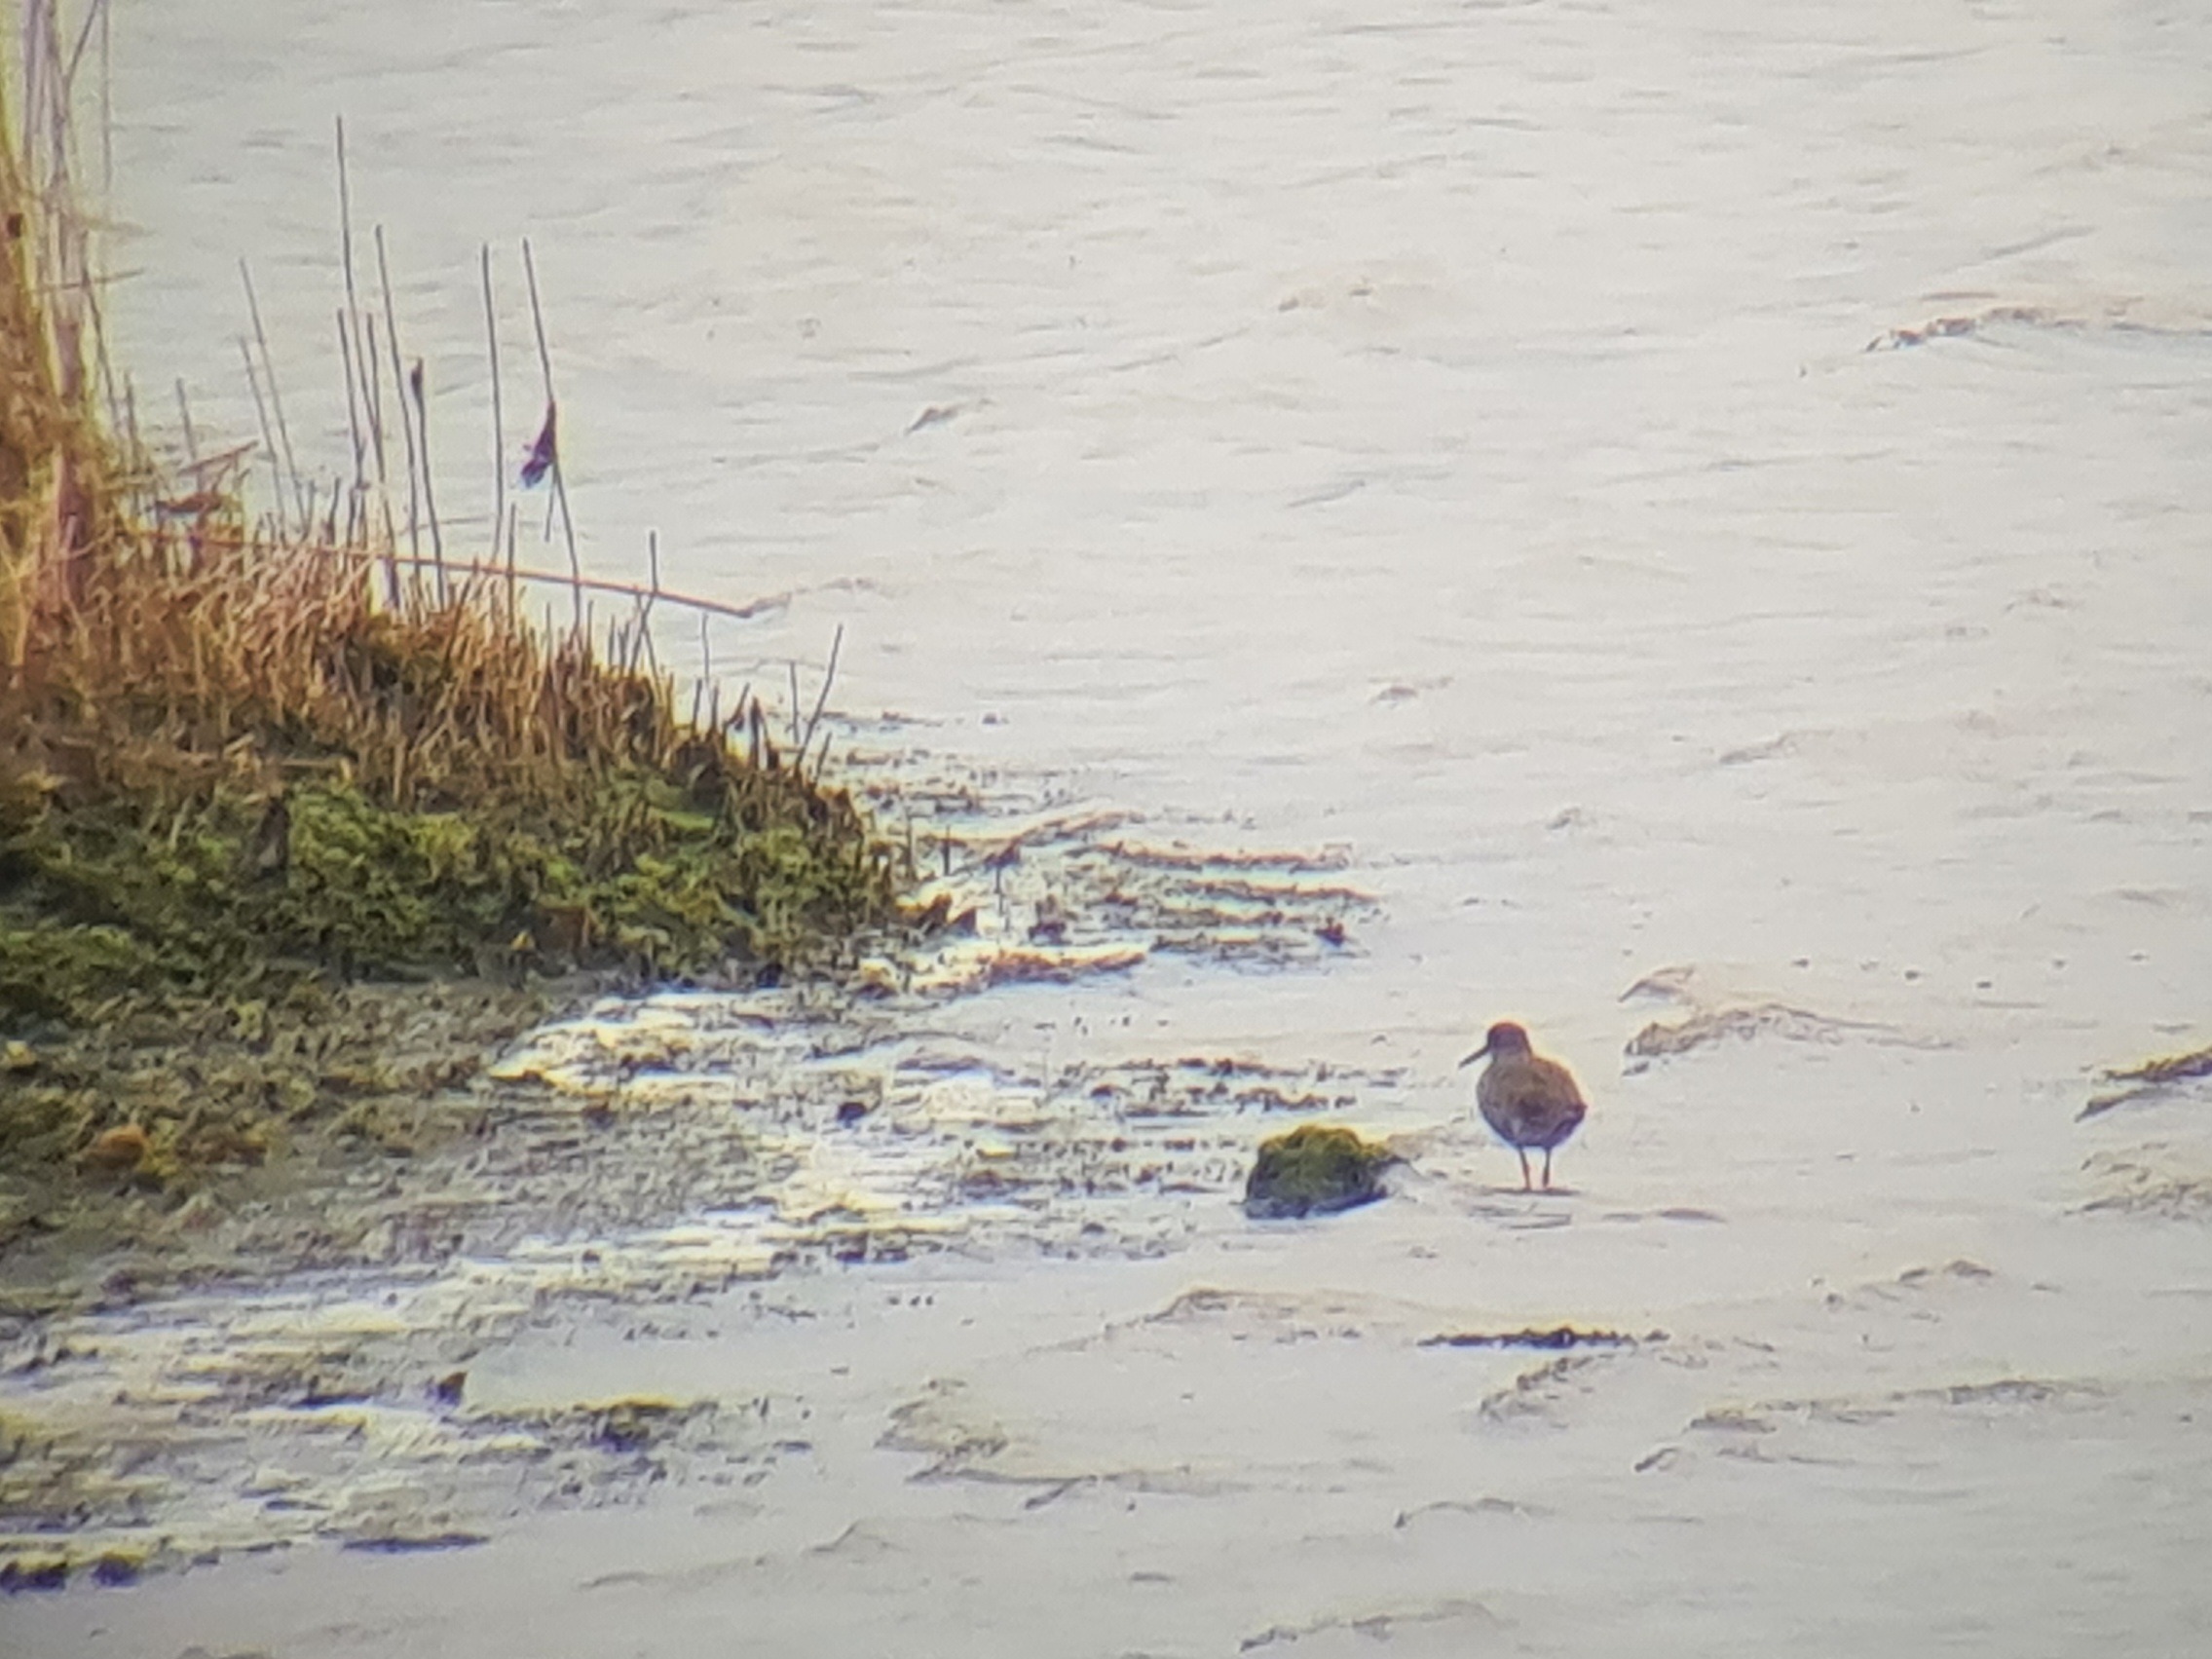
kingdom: Animalia
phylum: Chordata
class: Aves
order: Charadriiformes
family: Scolopacidae
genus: Tringa
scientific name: Tringa totanus
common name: Rødben
